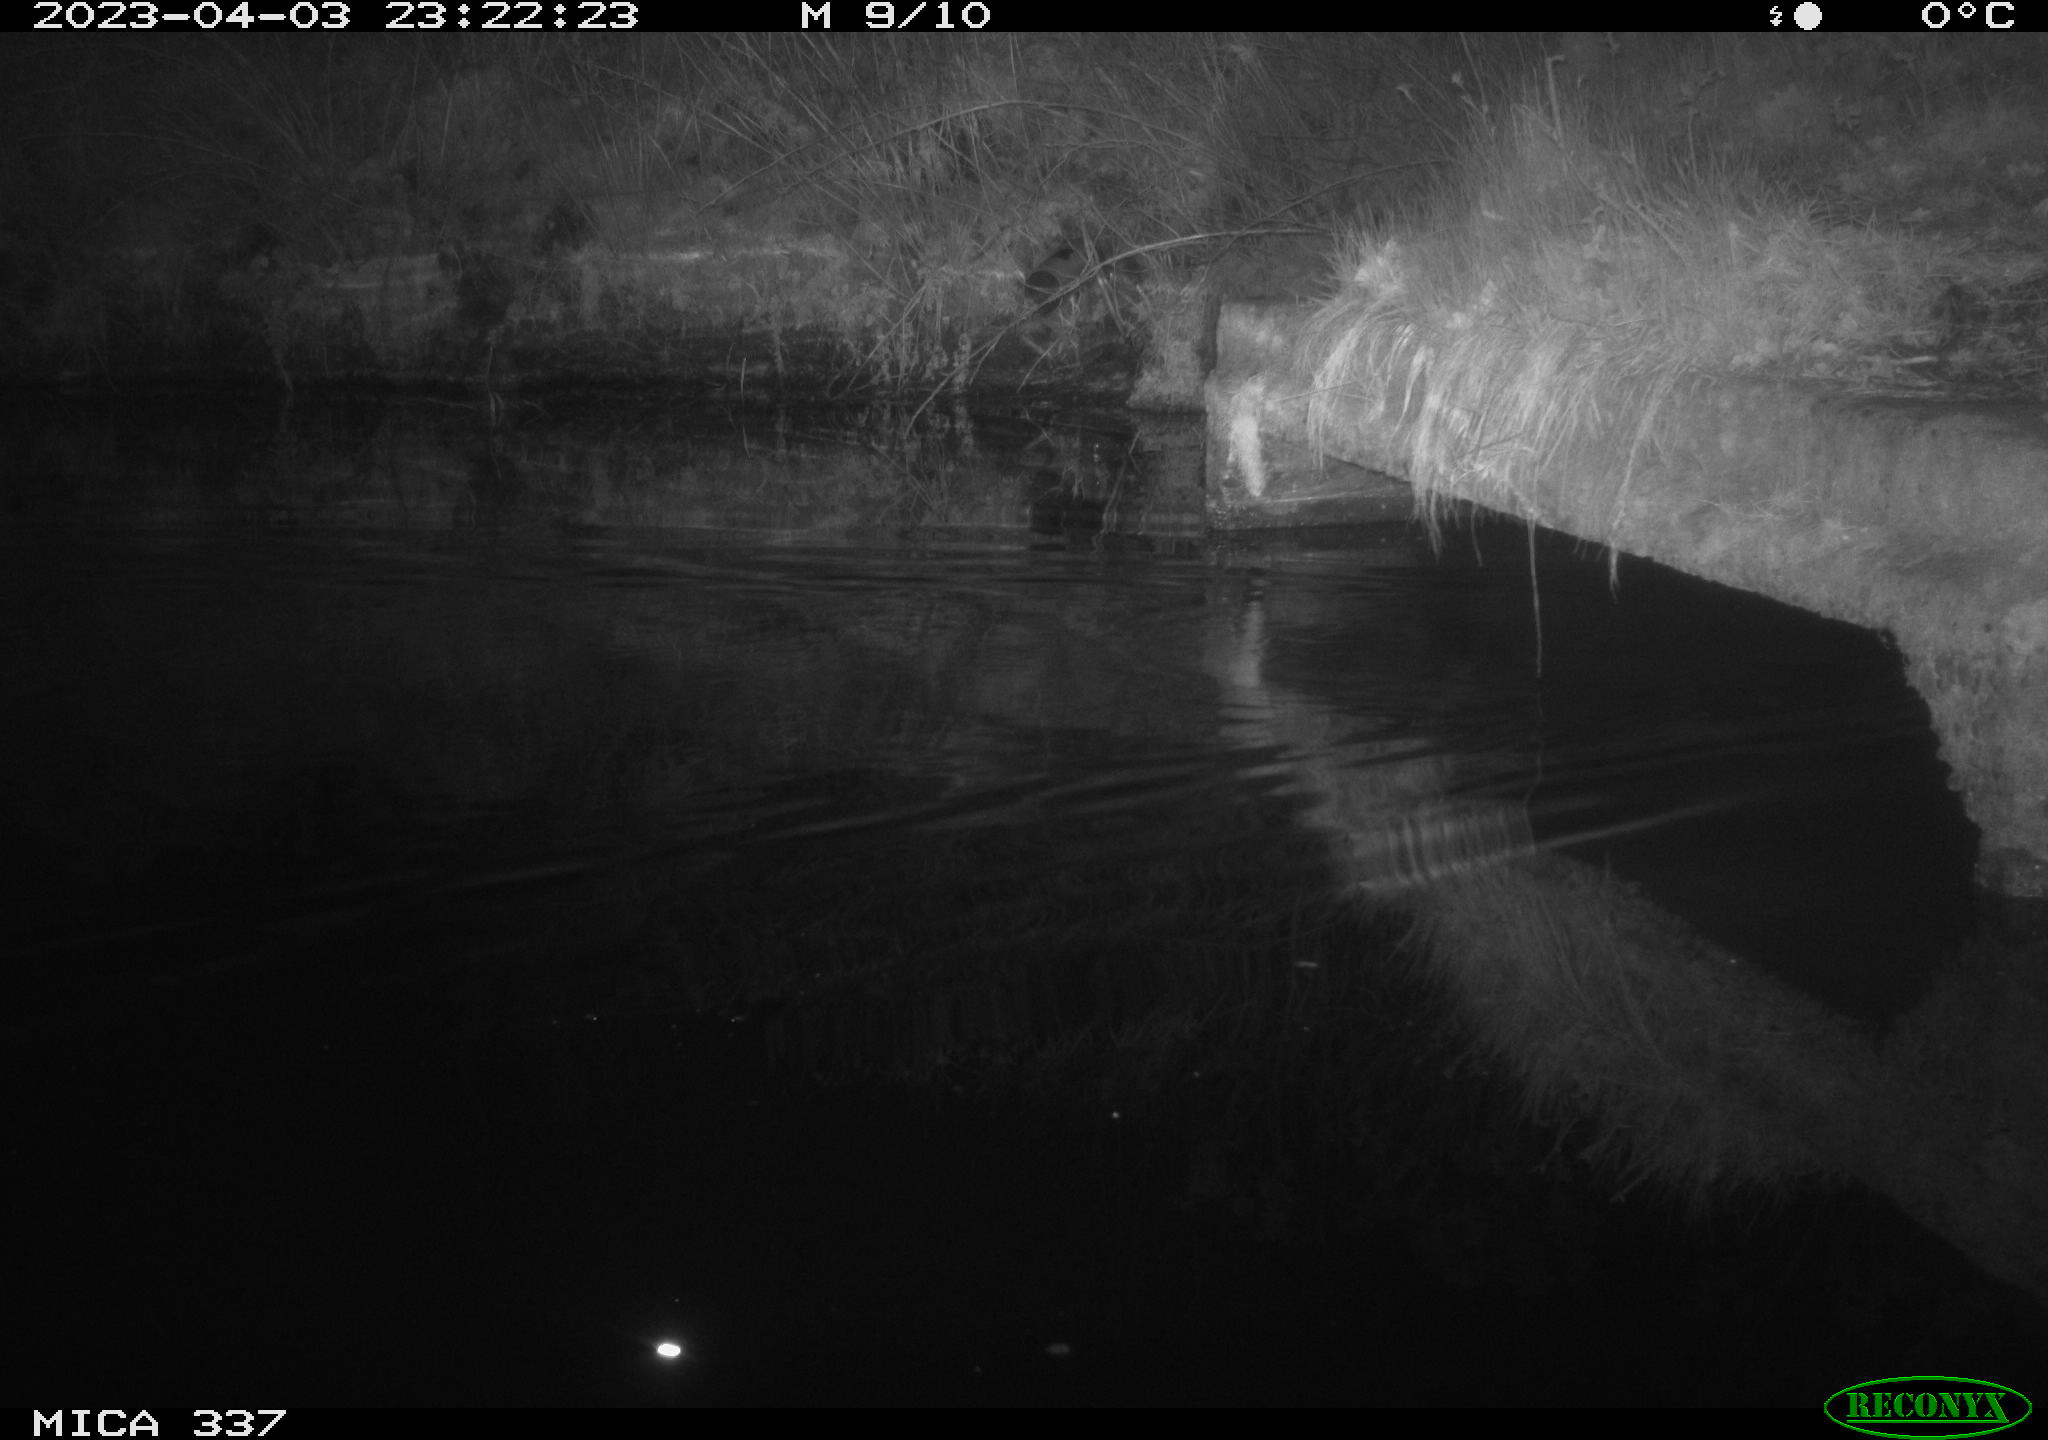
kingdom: Animalia
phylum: Chordata
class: Aves
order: Anseriformes
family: Anatidae
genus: Anas
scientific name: Anas
